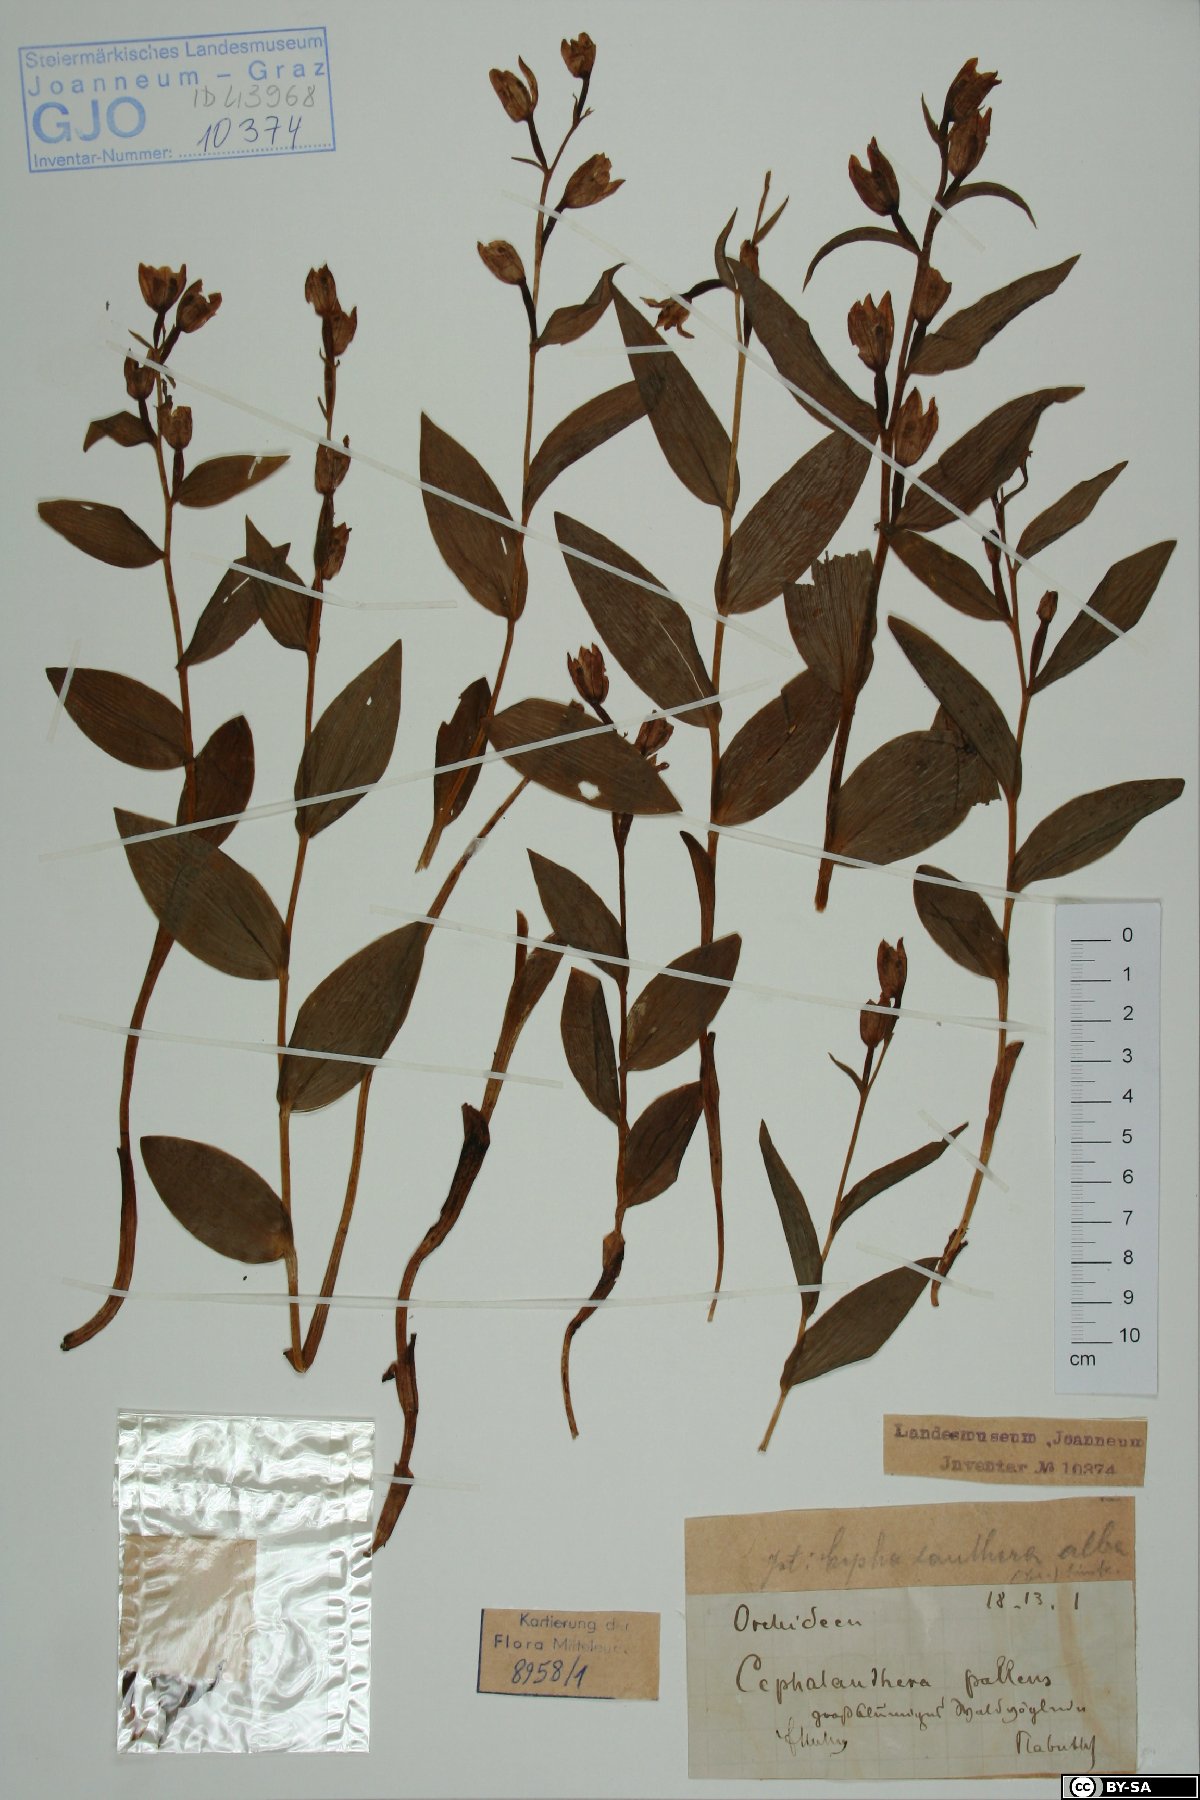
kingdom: Plantae
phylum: Tracheophyta
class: Liliopsida
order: Asparagales
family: Orchidaceae
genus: Cephalanthera
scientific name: Cephalanthera longifolia
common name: Narrow-leaved helleborine
